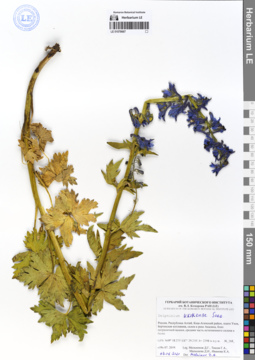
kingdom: Plantae
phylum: Tracheophyta
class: Magnoliopsida
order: Ranunculales
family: Ranunculaceae
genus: Delphinium
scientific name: Delphinium ukokense
